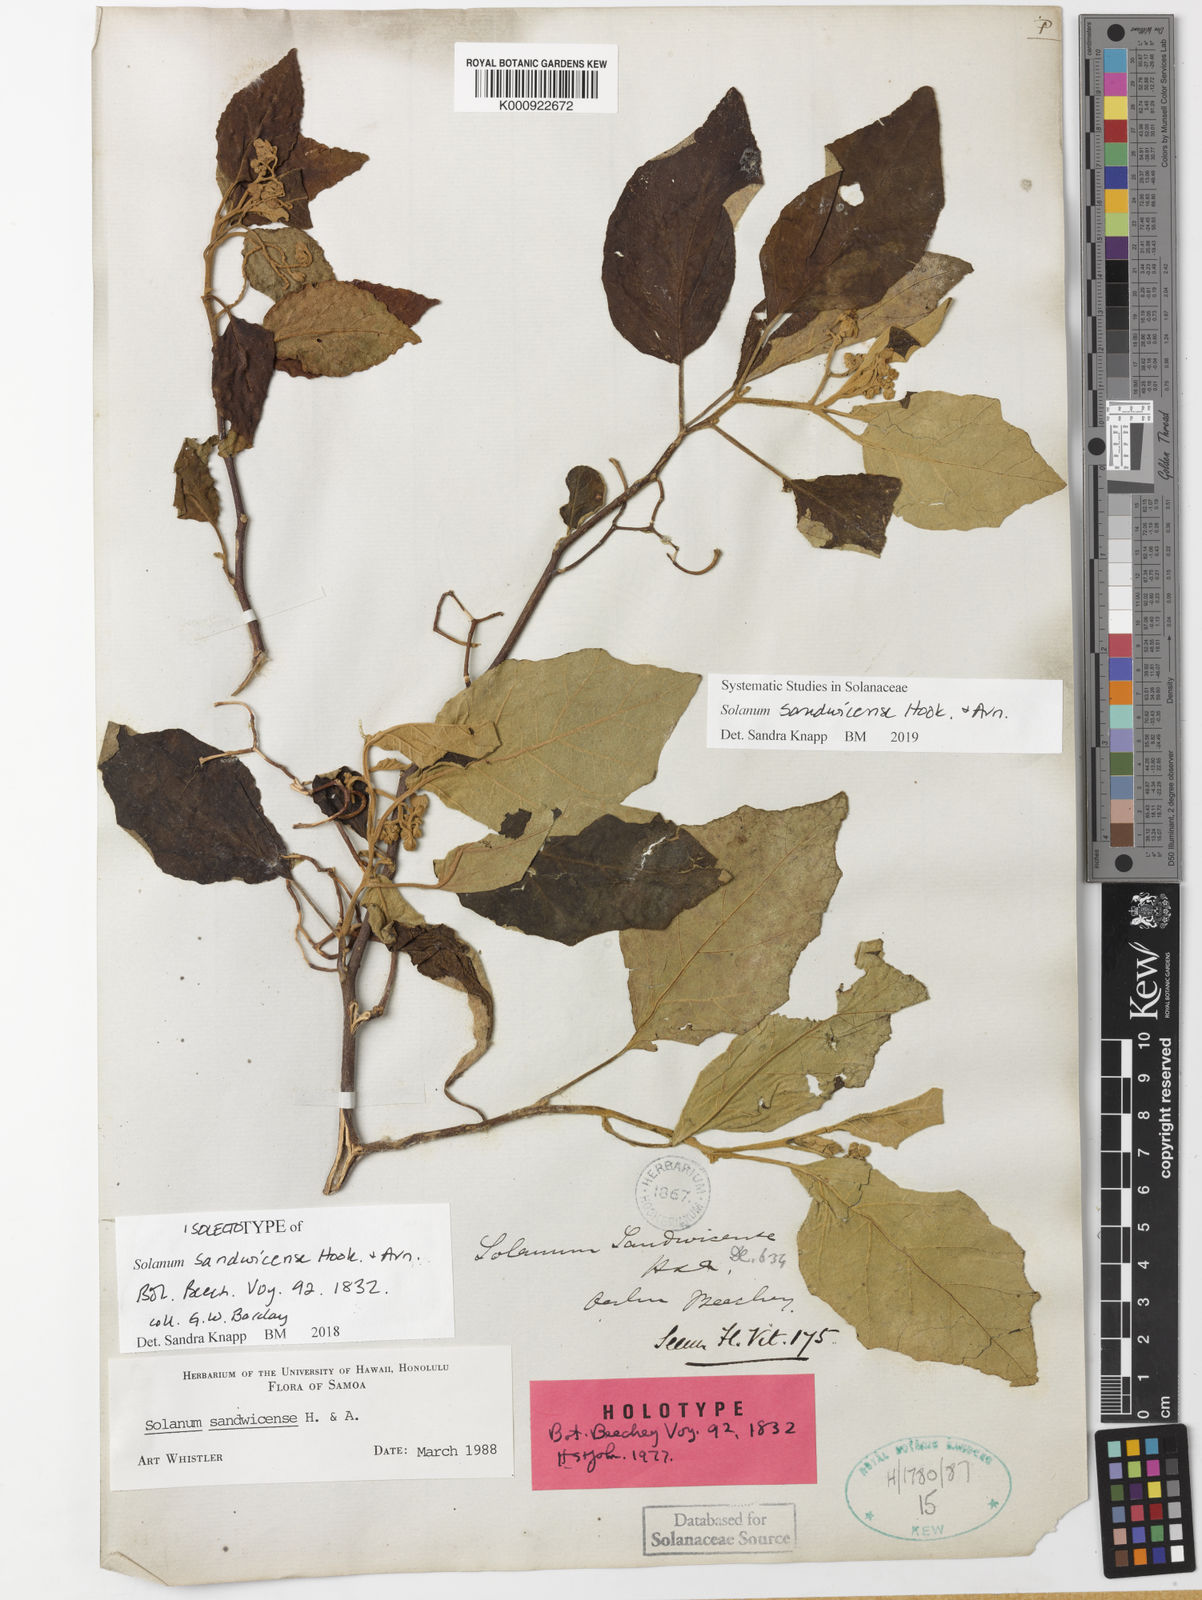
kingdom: Plantae
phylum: Tracheophyta
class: Magnoliopsida
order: Solanales
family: Solanaceae
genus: Solanum
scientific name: Solanum sandwicense
